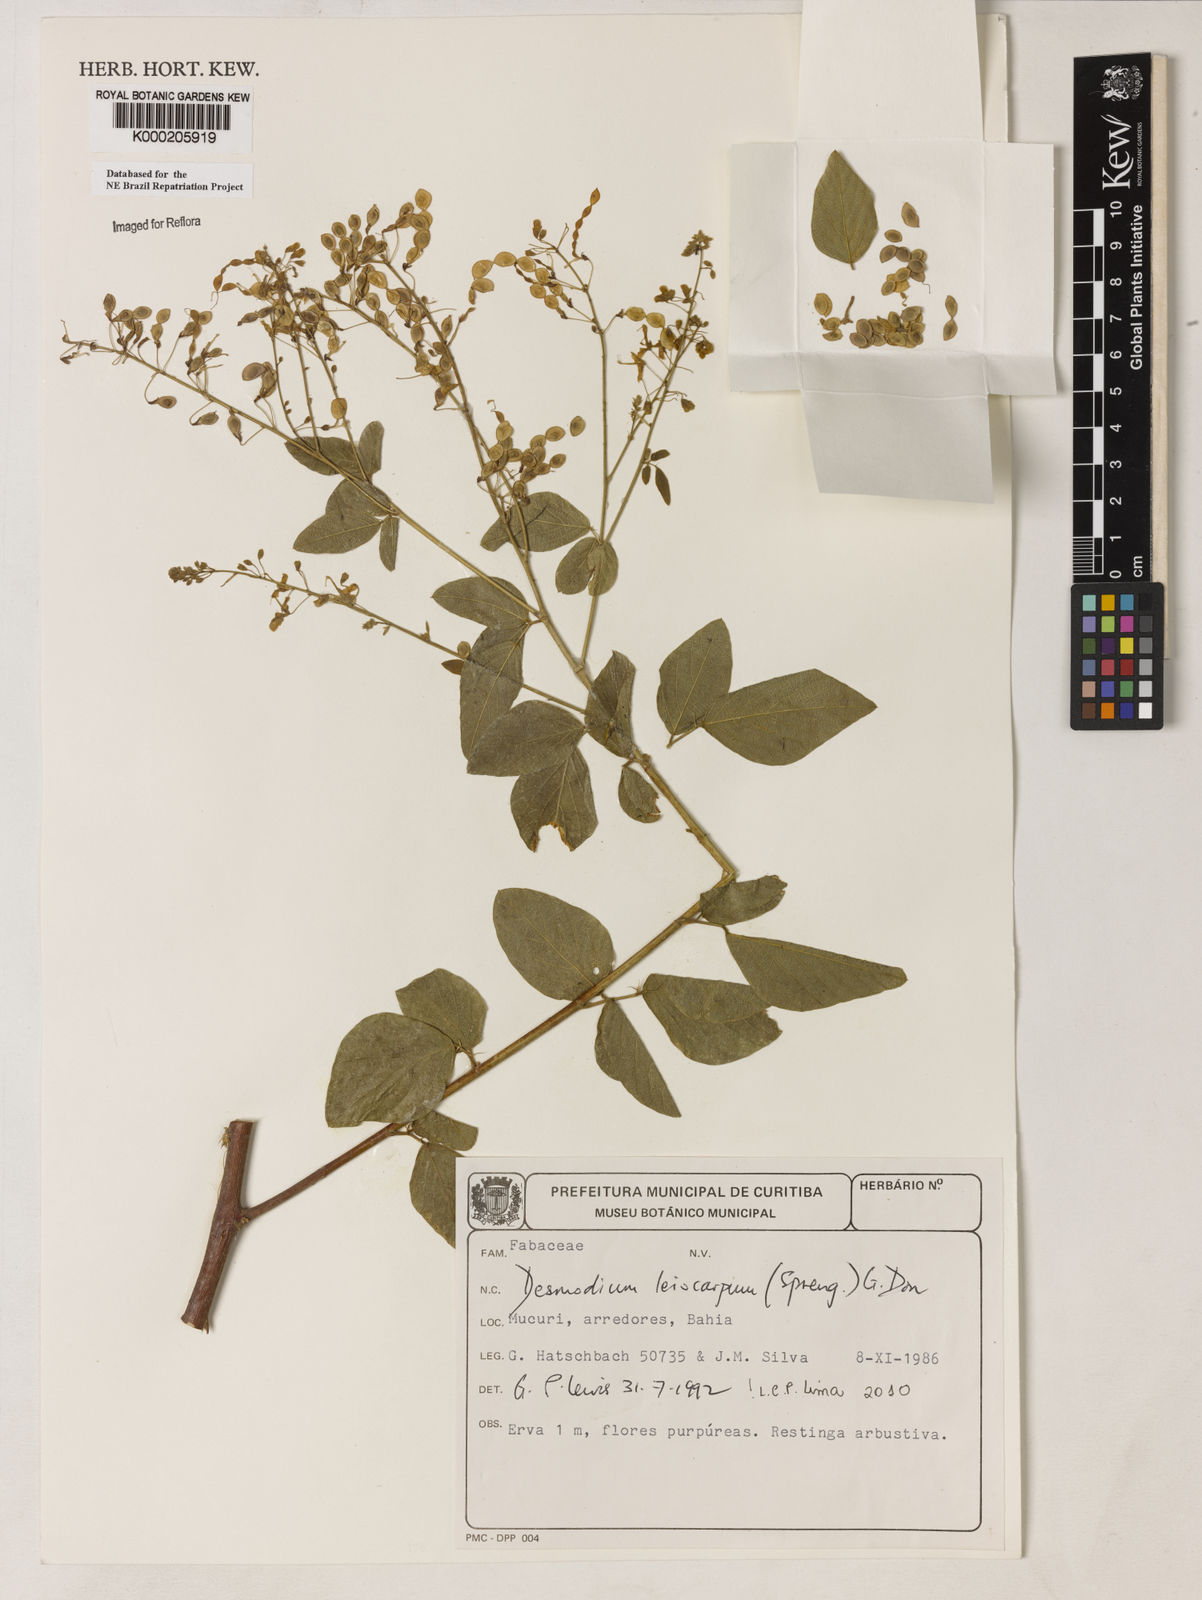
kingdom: Plantae
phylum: Tracheophyta
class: Magnoliopsida
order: Fabales
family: Fabaceae
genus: Desmodium
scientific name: Desmodium leiocarpum
